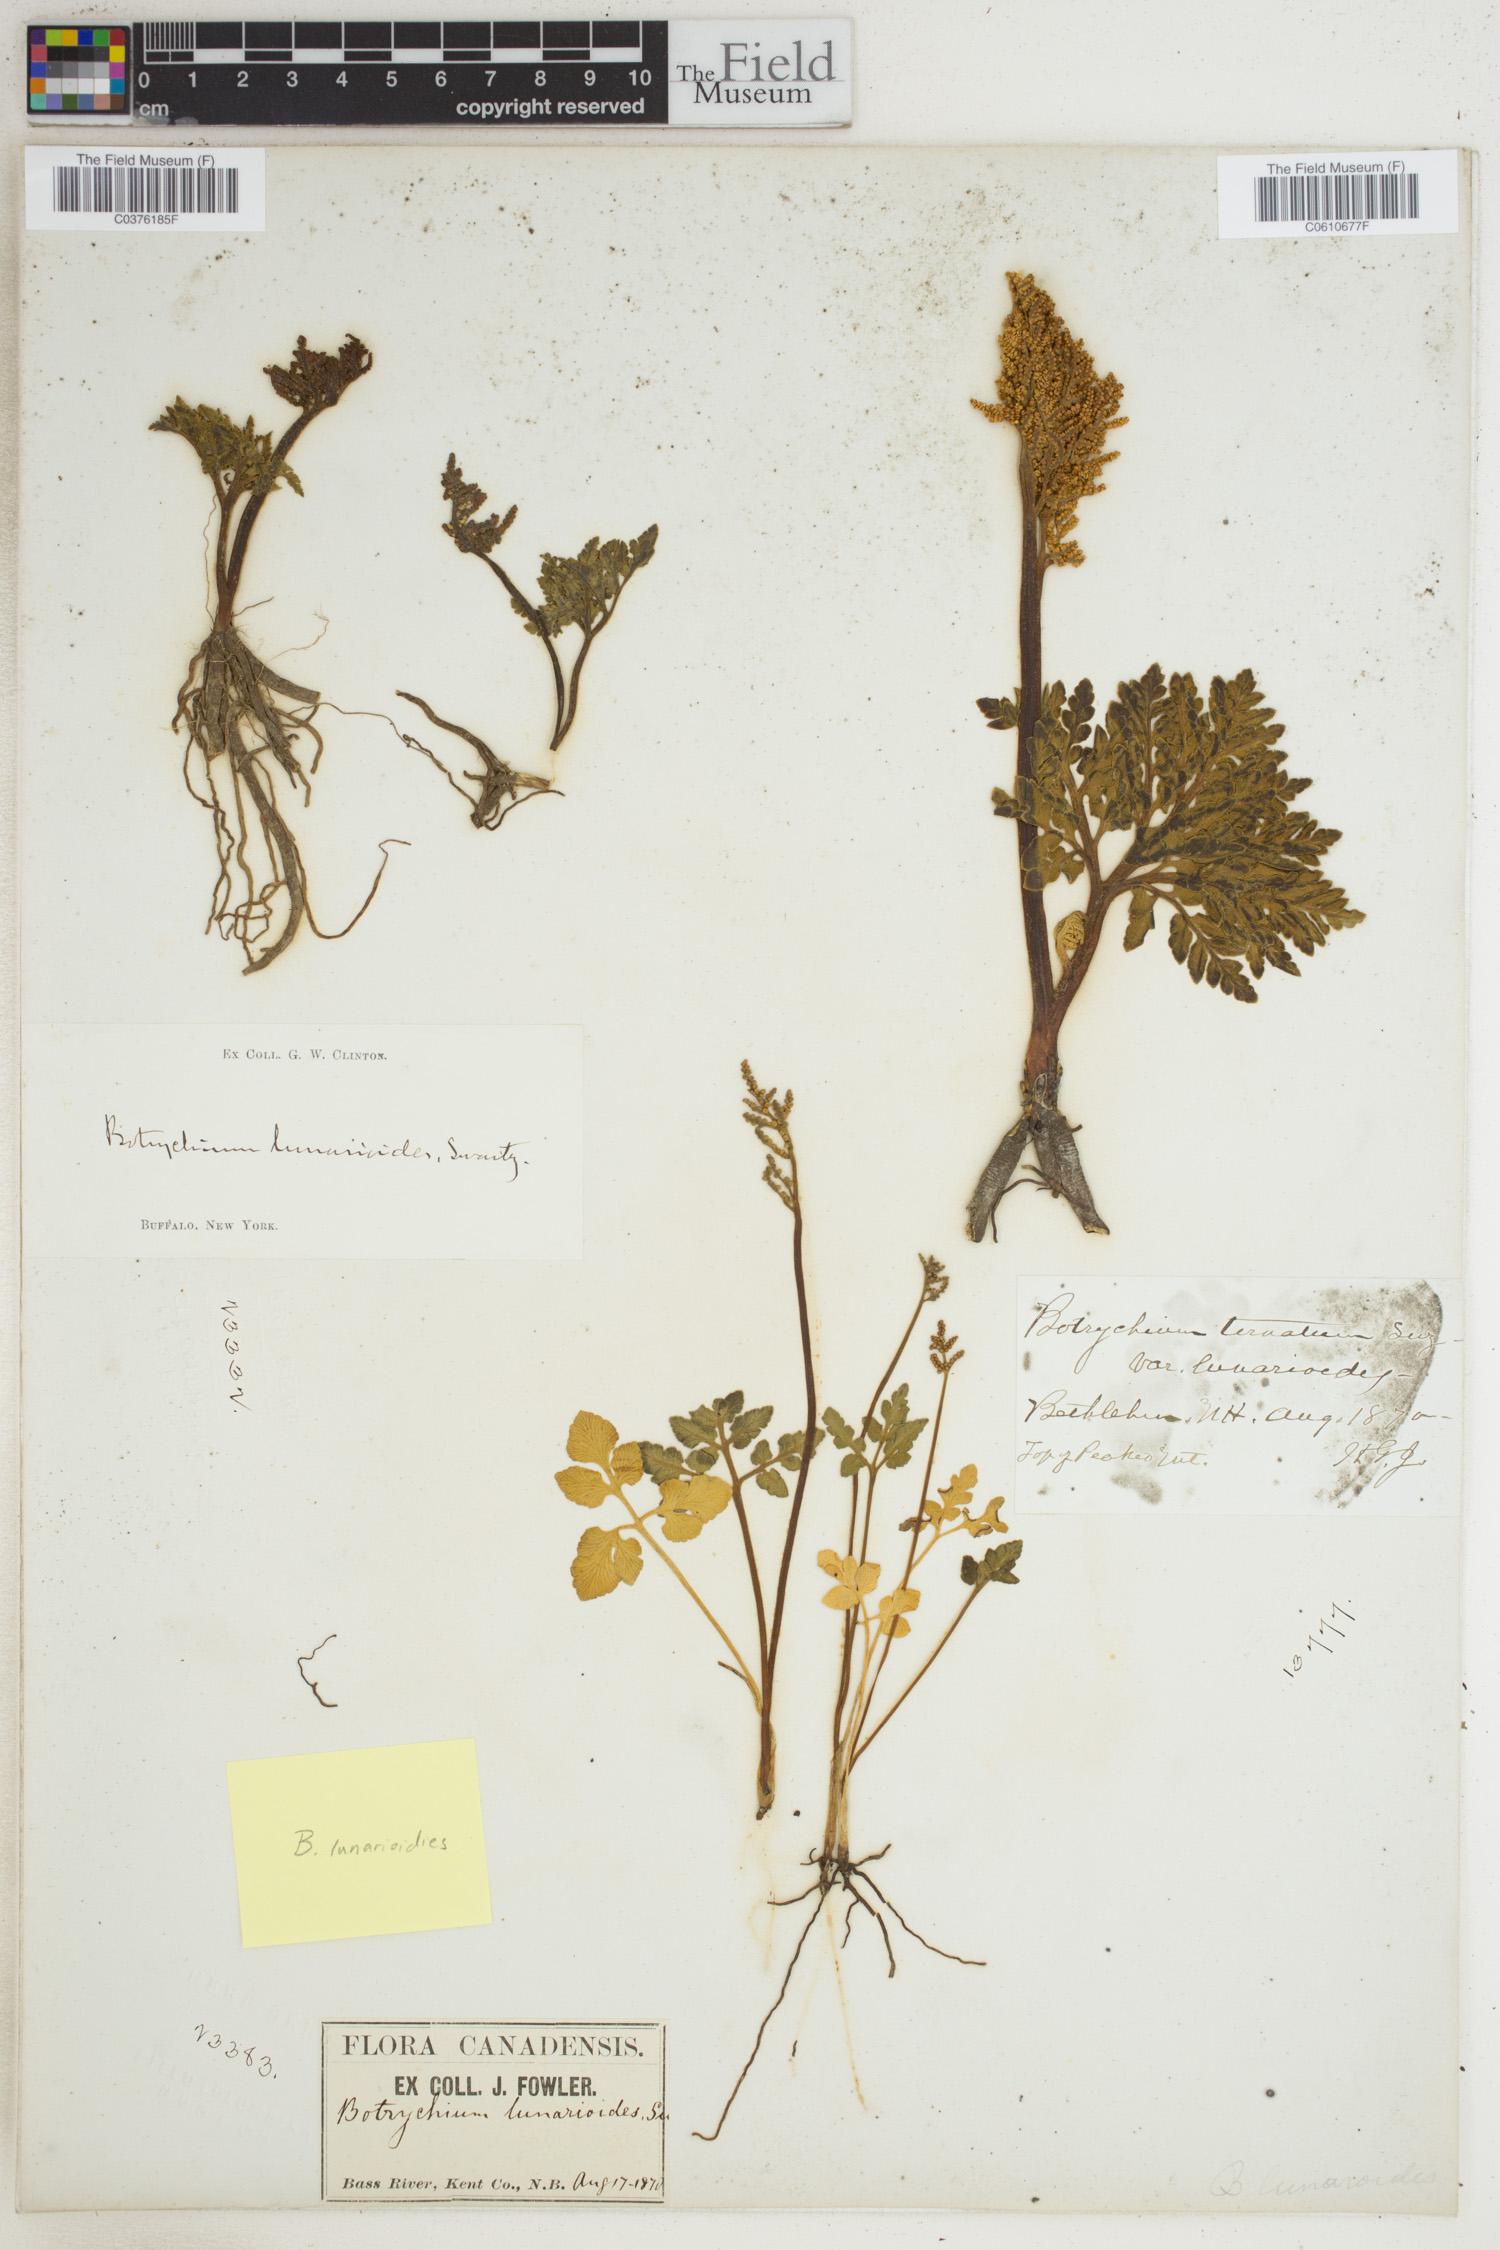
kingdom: Plantae
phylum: Tracheophyta
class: Polypodiopsida
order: Ophioglossales
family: Ophioglossaceae
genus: Sceptridium
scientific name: Sceptridium lunarioides
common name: Prostrate grapefern
